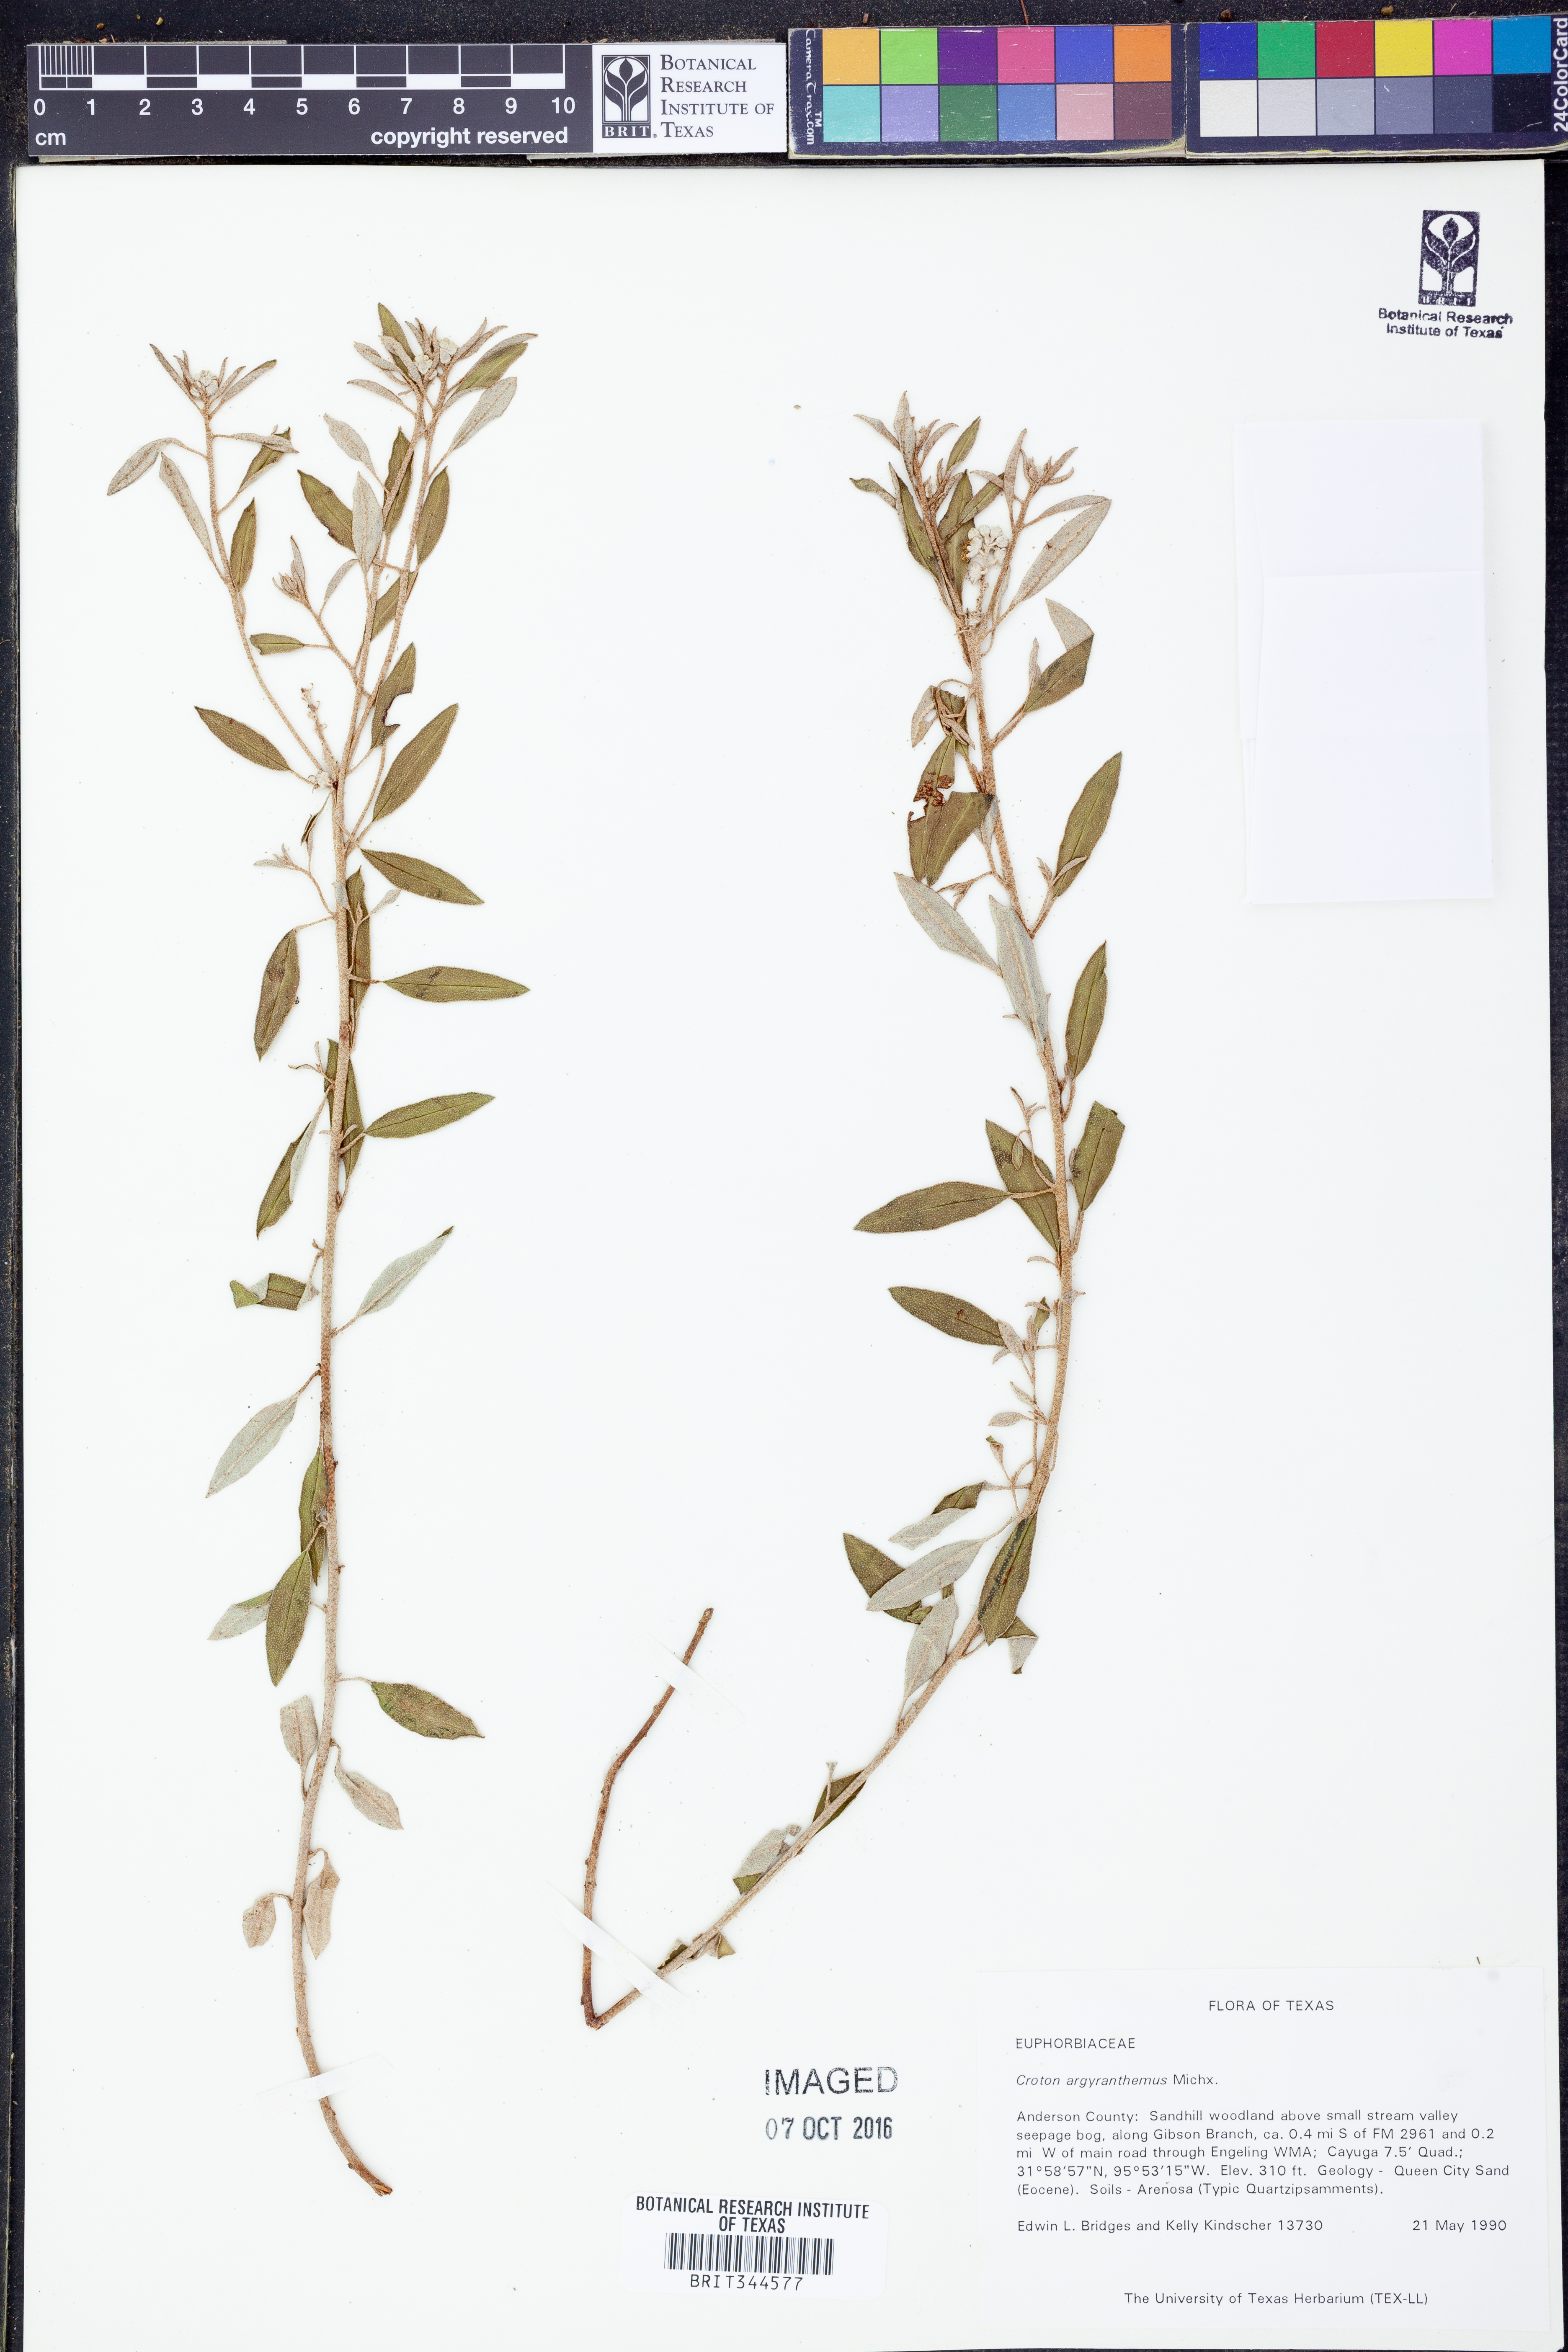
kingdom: Plantae
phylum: Tracheophyta
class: Magnoliopsida
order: Malpighiales
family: Euphorbiaceae
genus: Croton
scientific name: Croton argyranthemus
